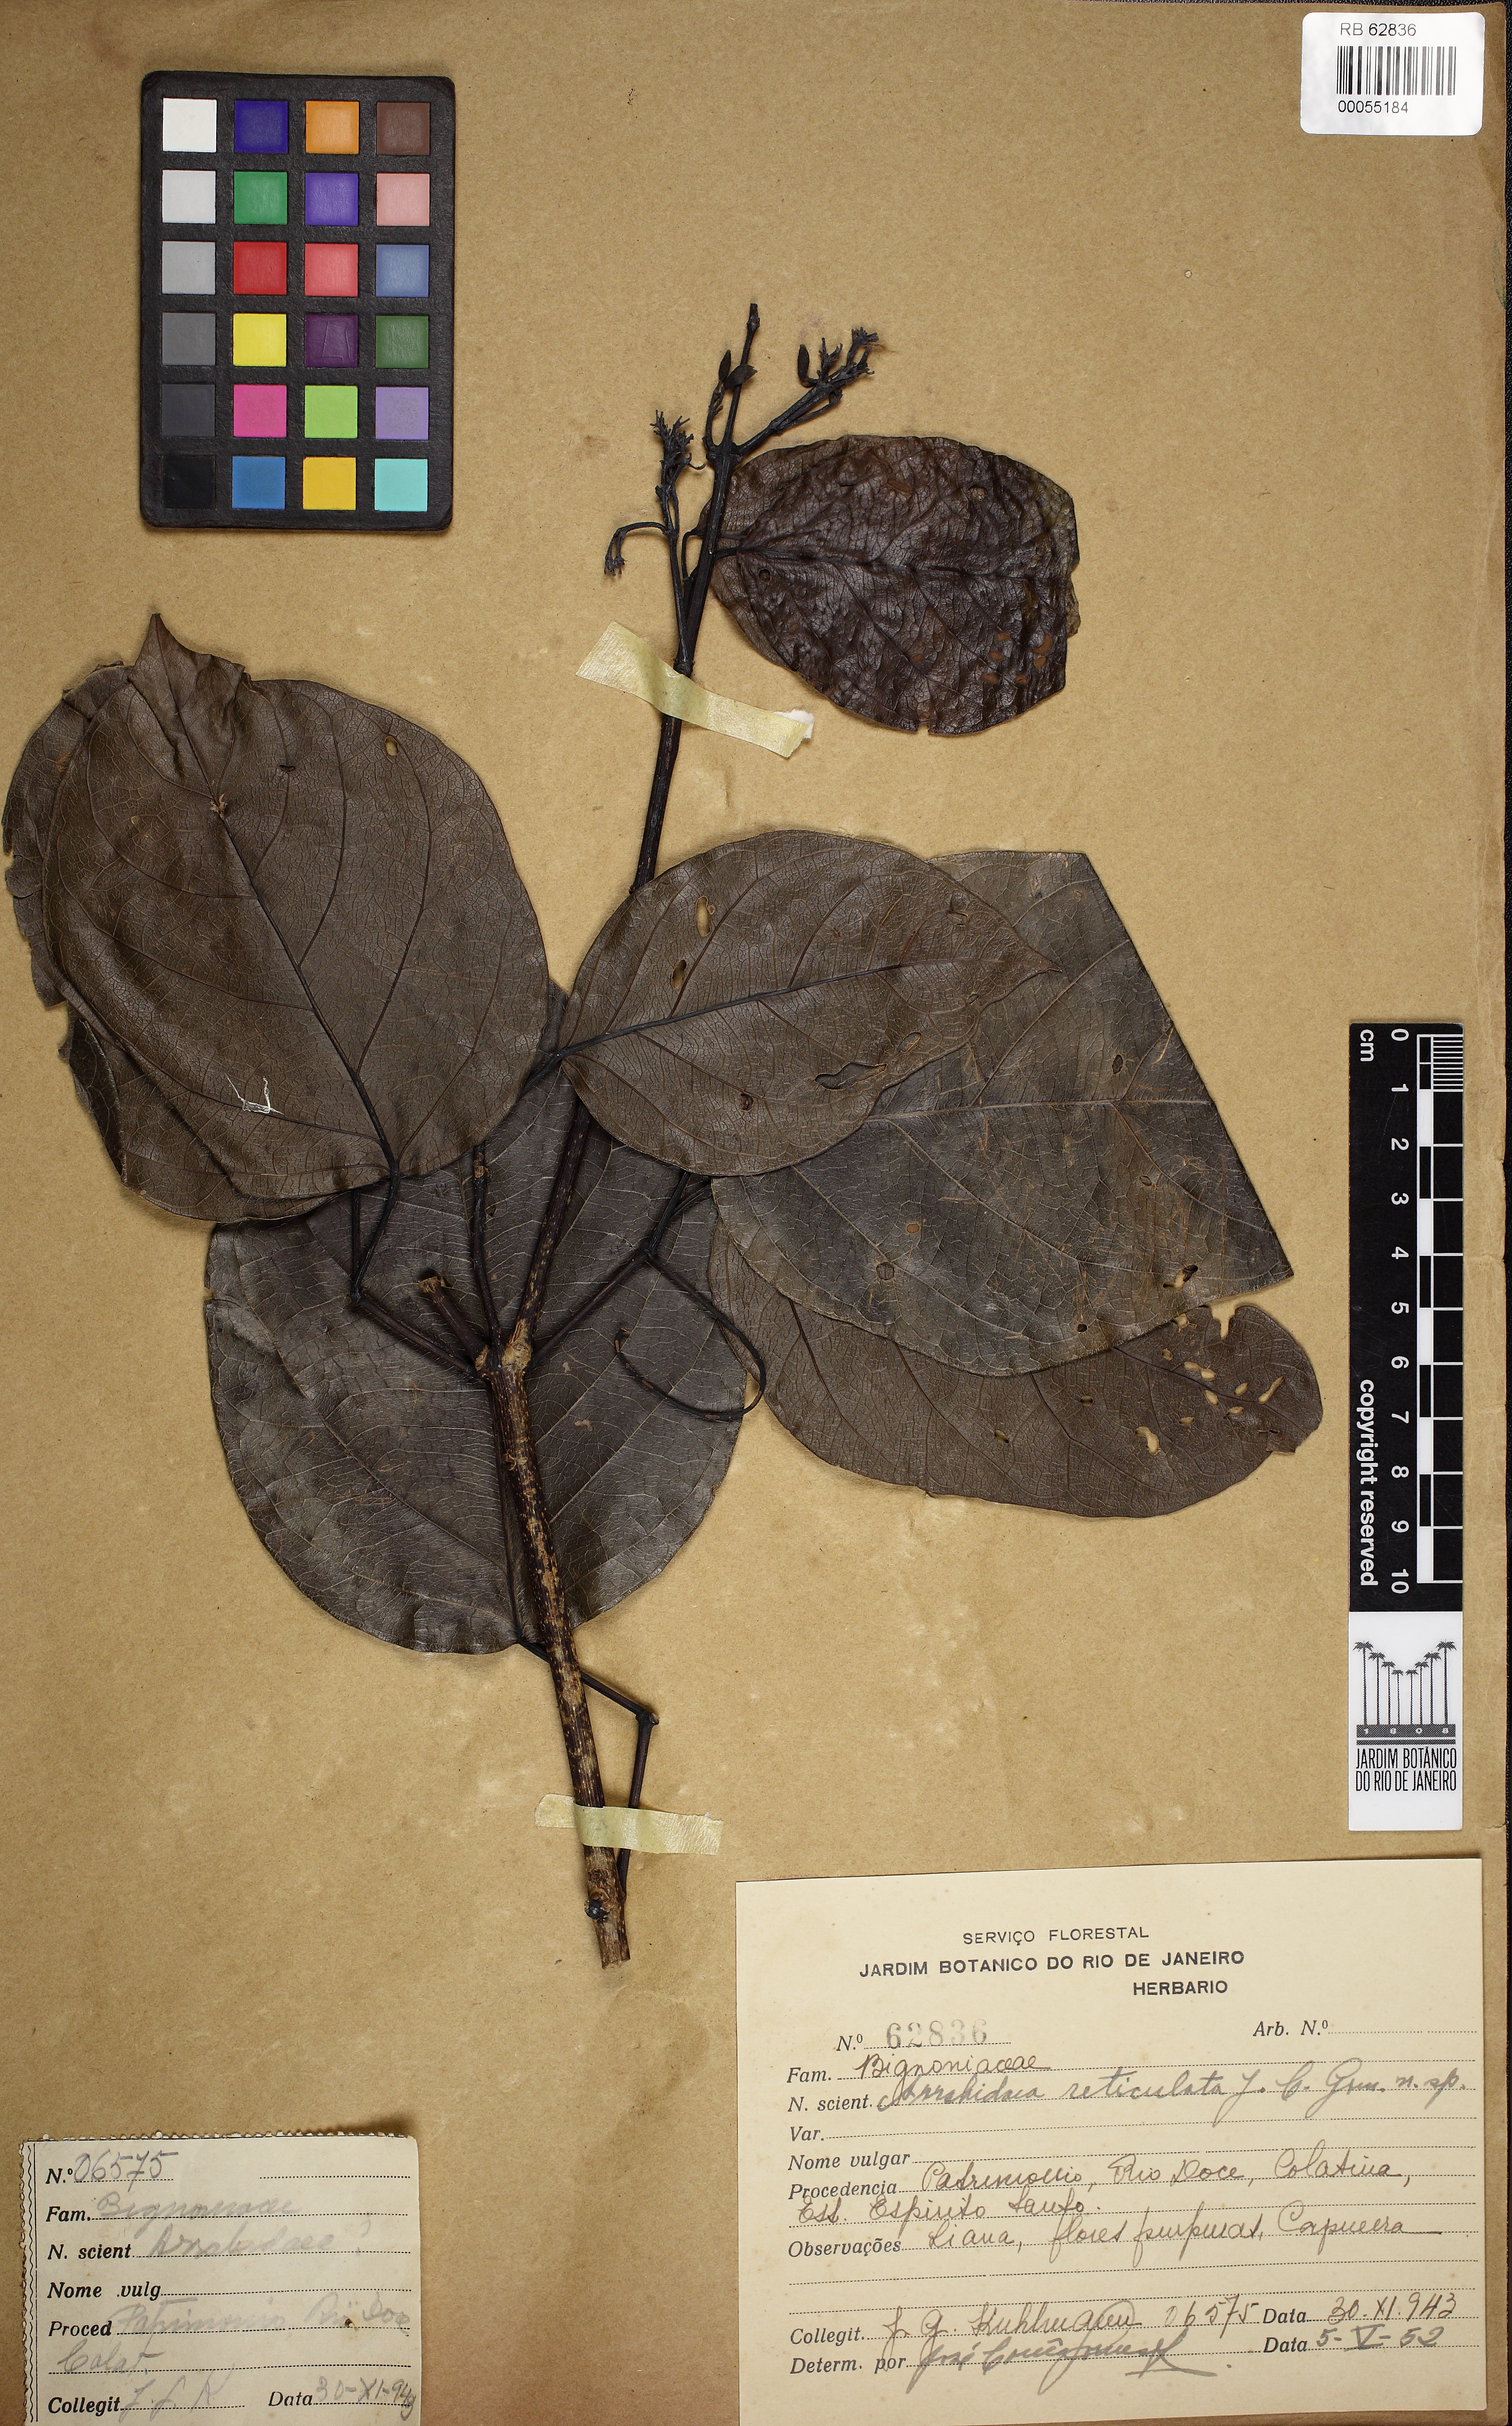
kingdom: Plantae
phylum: Tracheophyta
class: Magnoliopsida
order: Lamiales
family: Bignoniaceae
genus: Fridericia
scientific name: Fridericia conjugata
